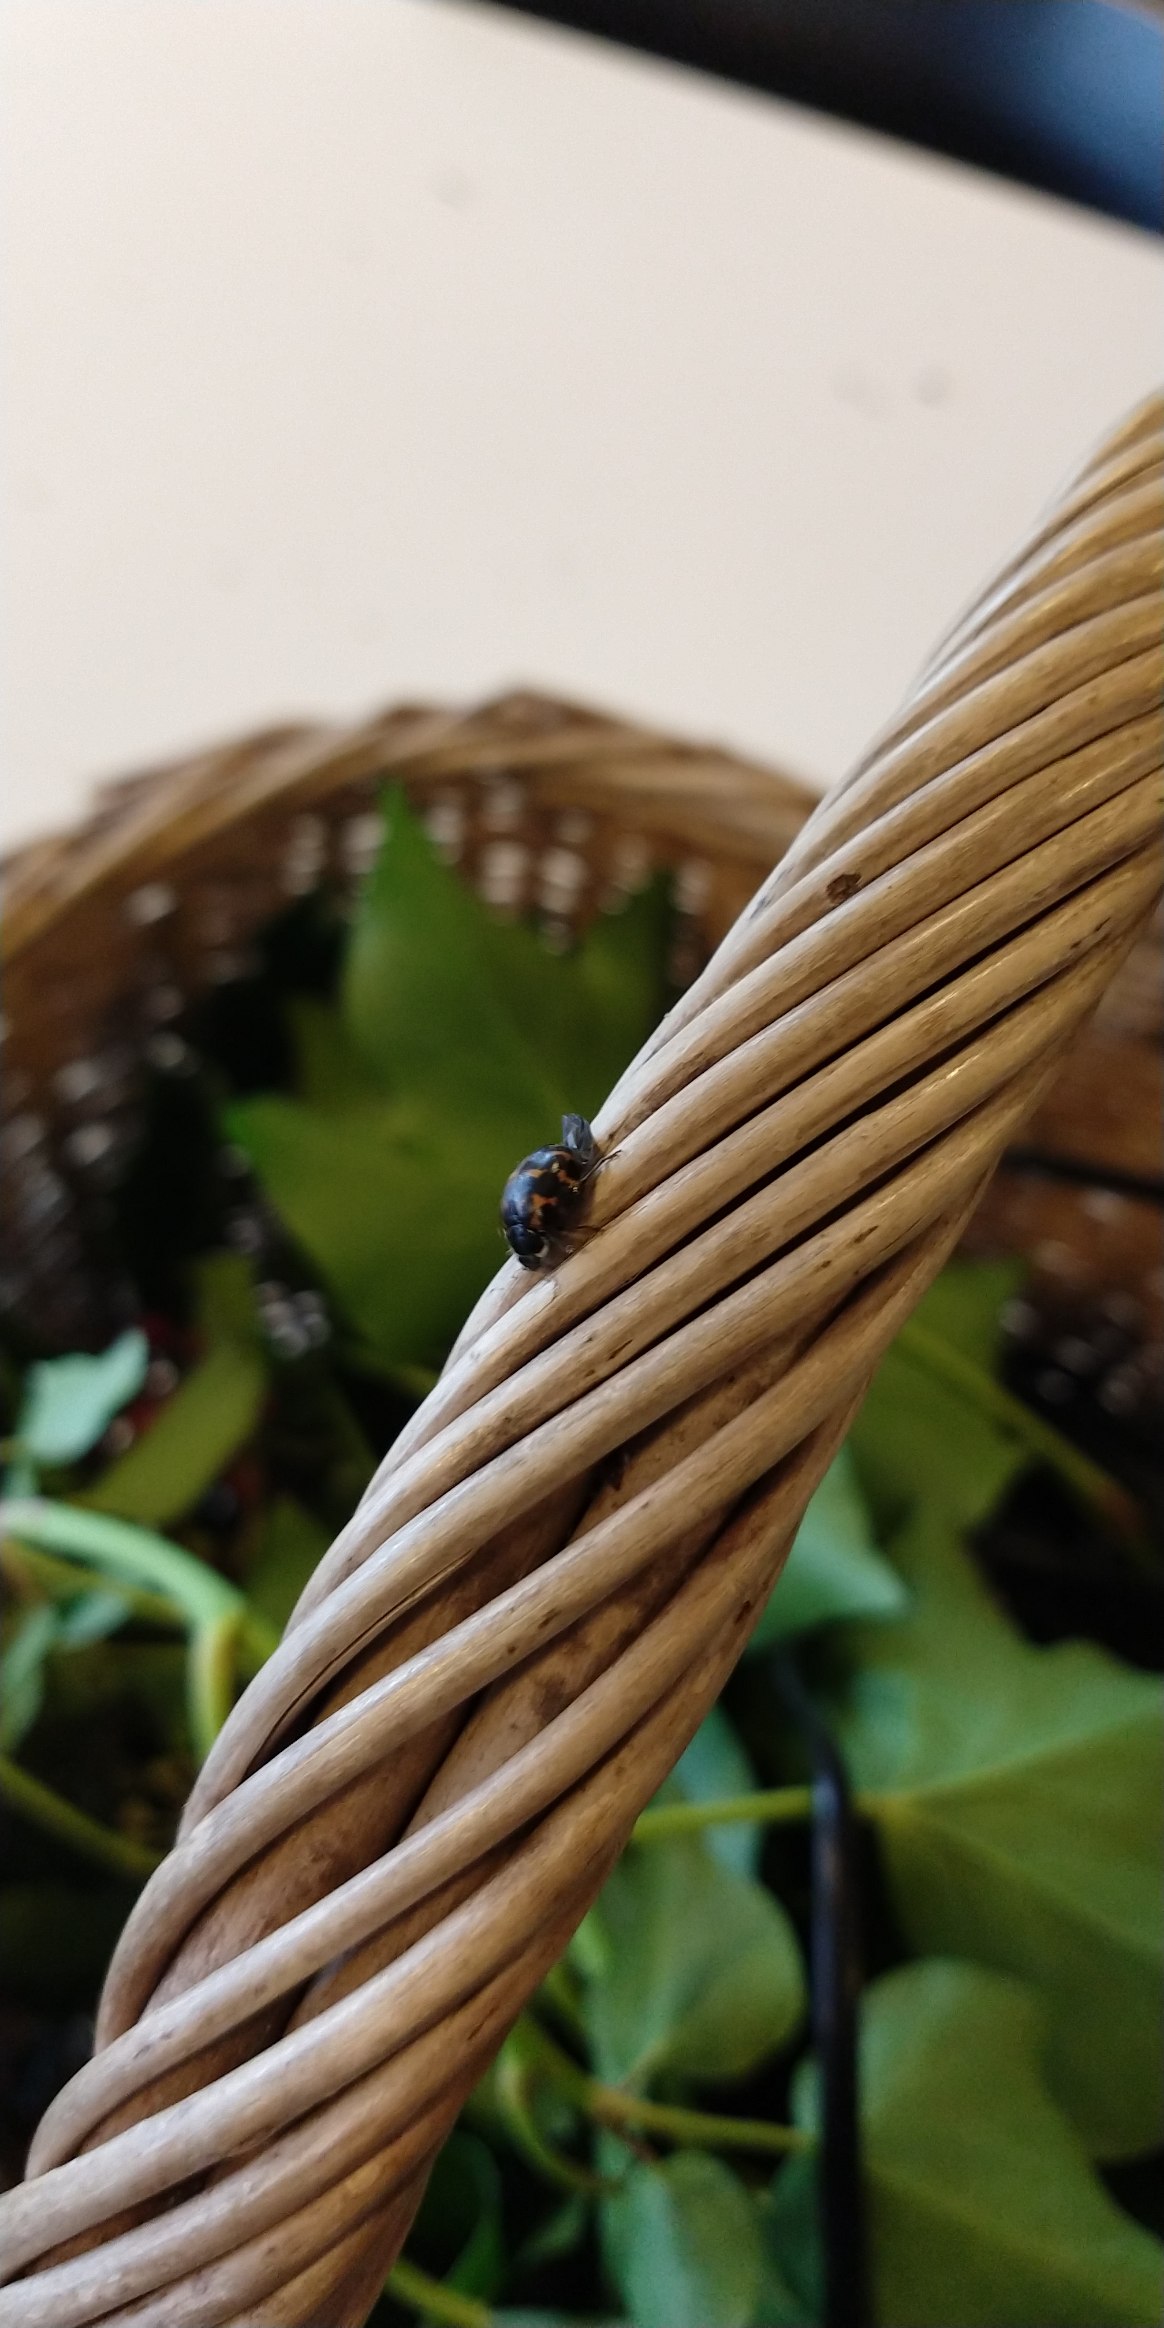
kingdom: Animalia
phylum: Arthropoda
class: Insecta
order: Coleoptera
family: Coccinellidae
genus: Harmonia
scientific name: Harmonia axyridis
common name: Harlekinmariehøne
